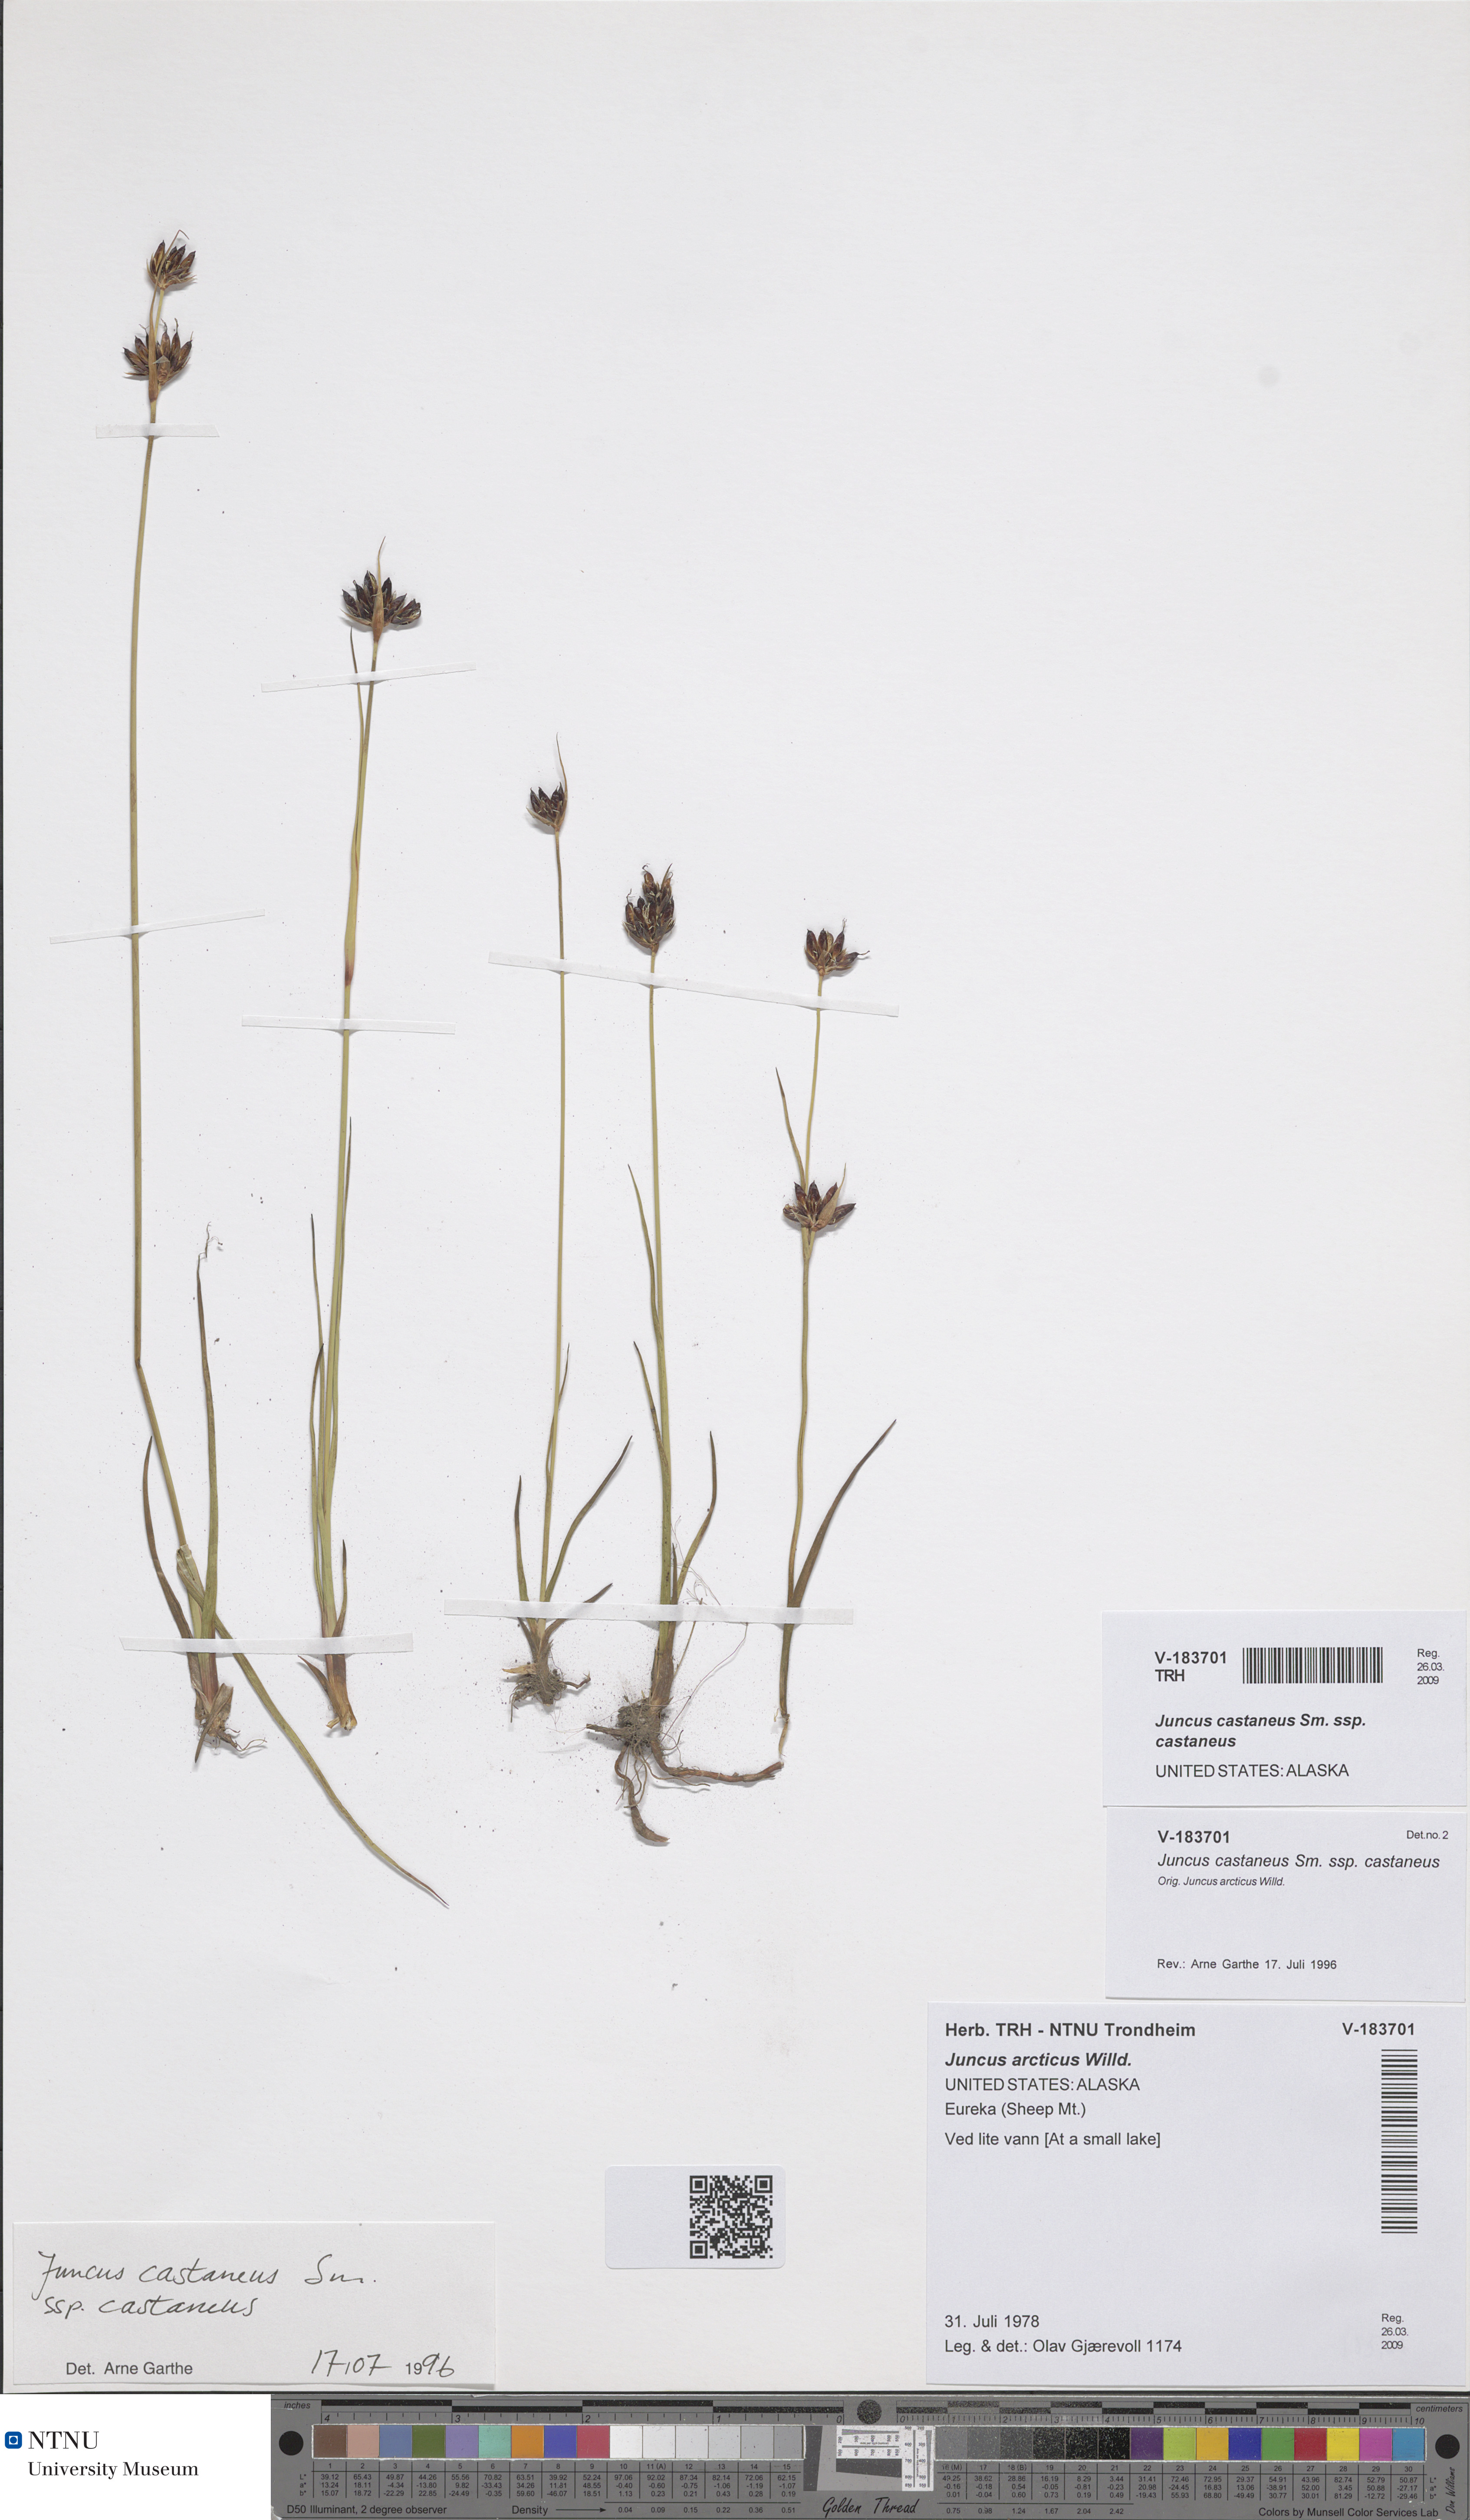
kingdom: Plantae
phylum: Tracheophyta
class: Liliopsida
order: Poales
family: Juncaceae
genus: Juncus
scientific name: Juncus castaneus
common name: Chestnut rush
